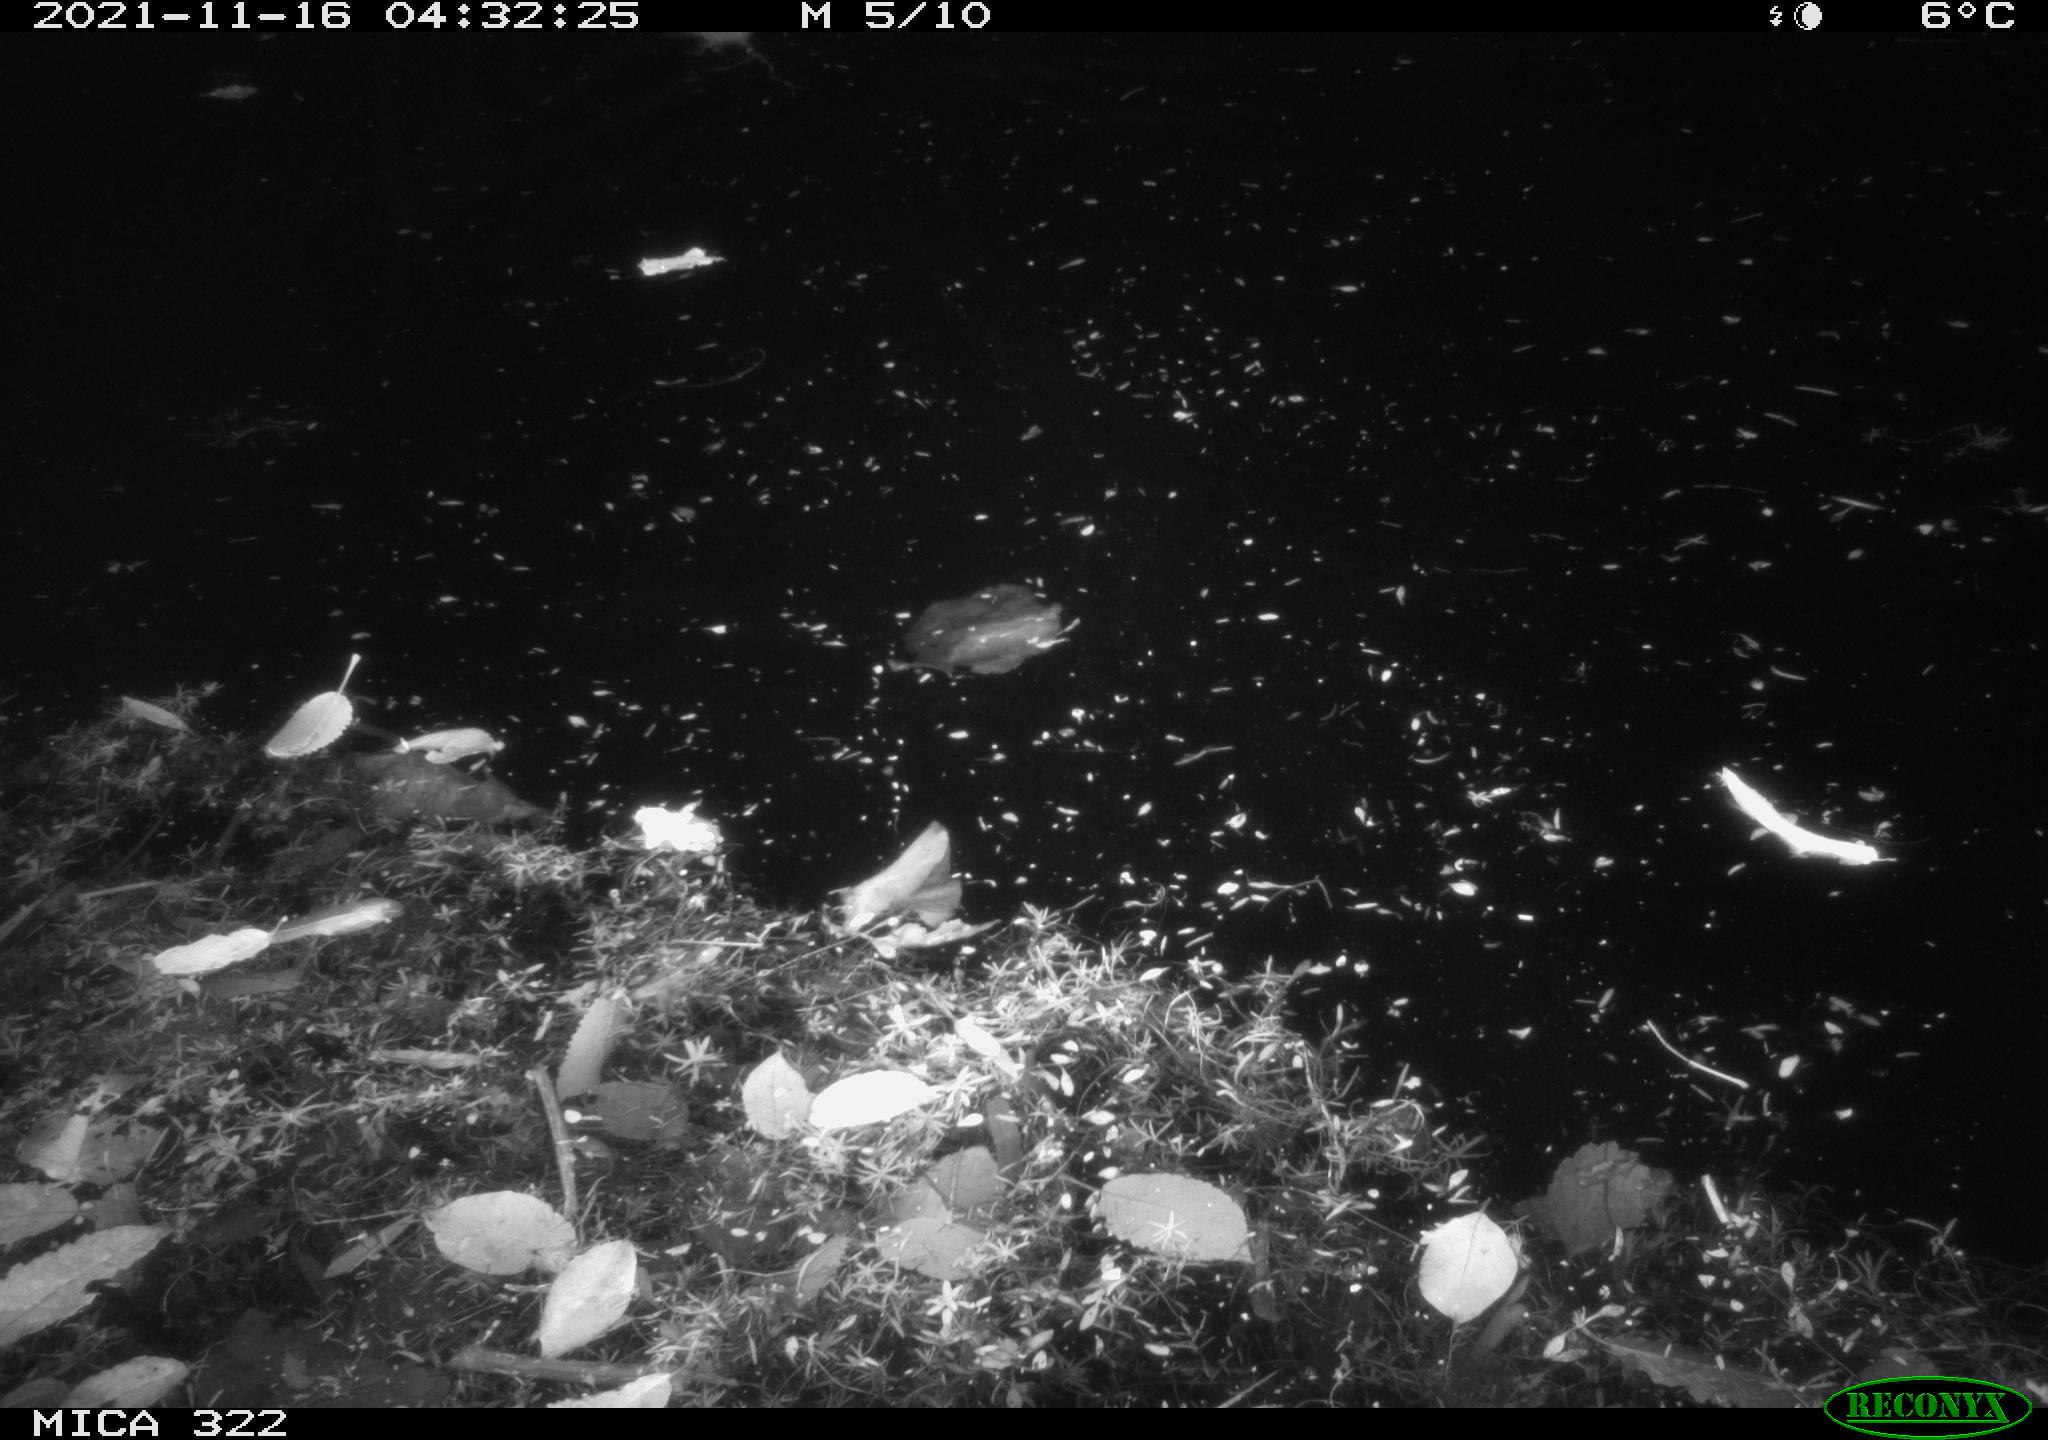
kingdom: Animalia
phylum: Chordata
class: Mammalia
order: Rodentia
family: Muridae
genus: Rattus
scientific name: Rattus norvegicus
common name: Brown rat
